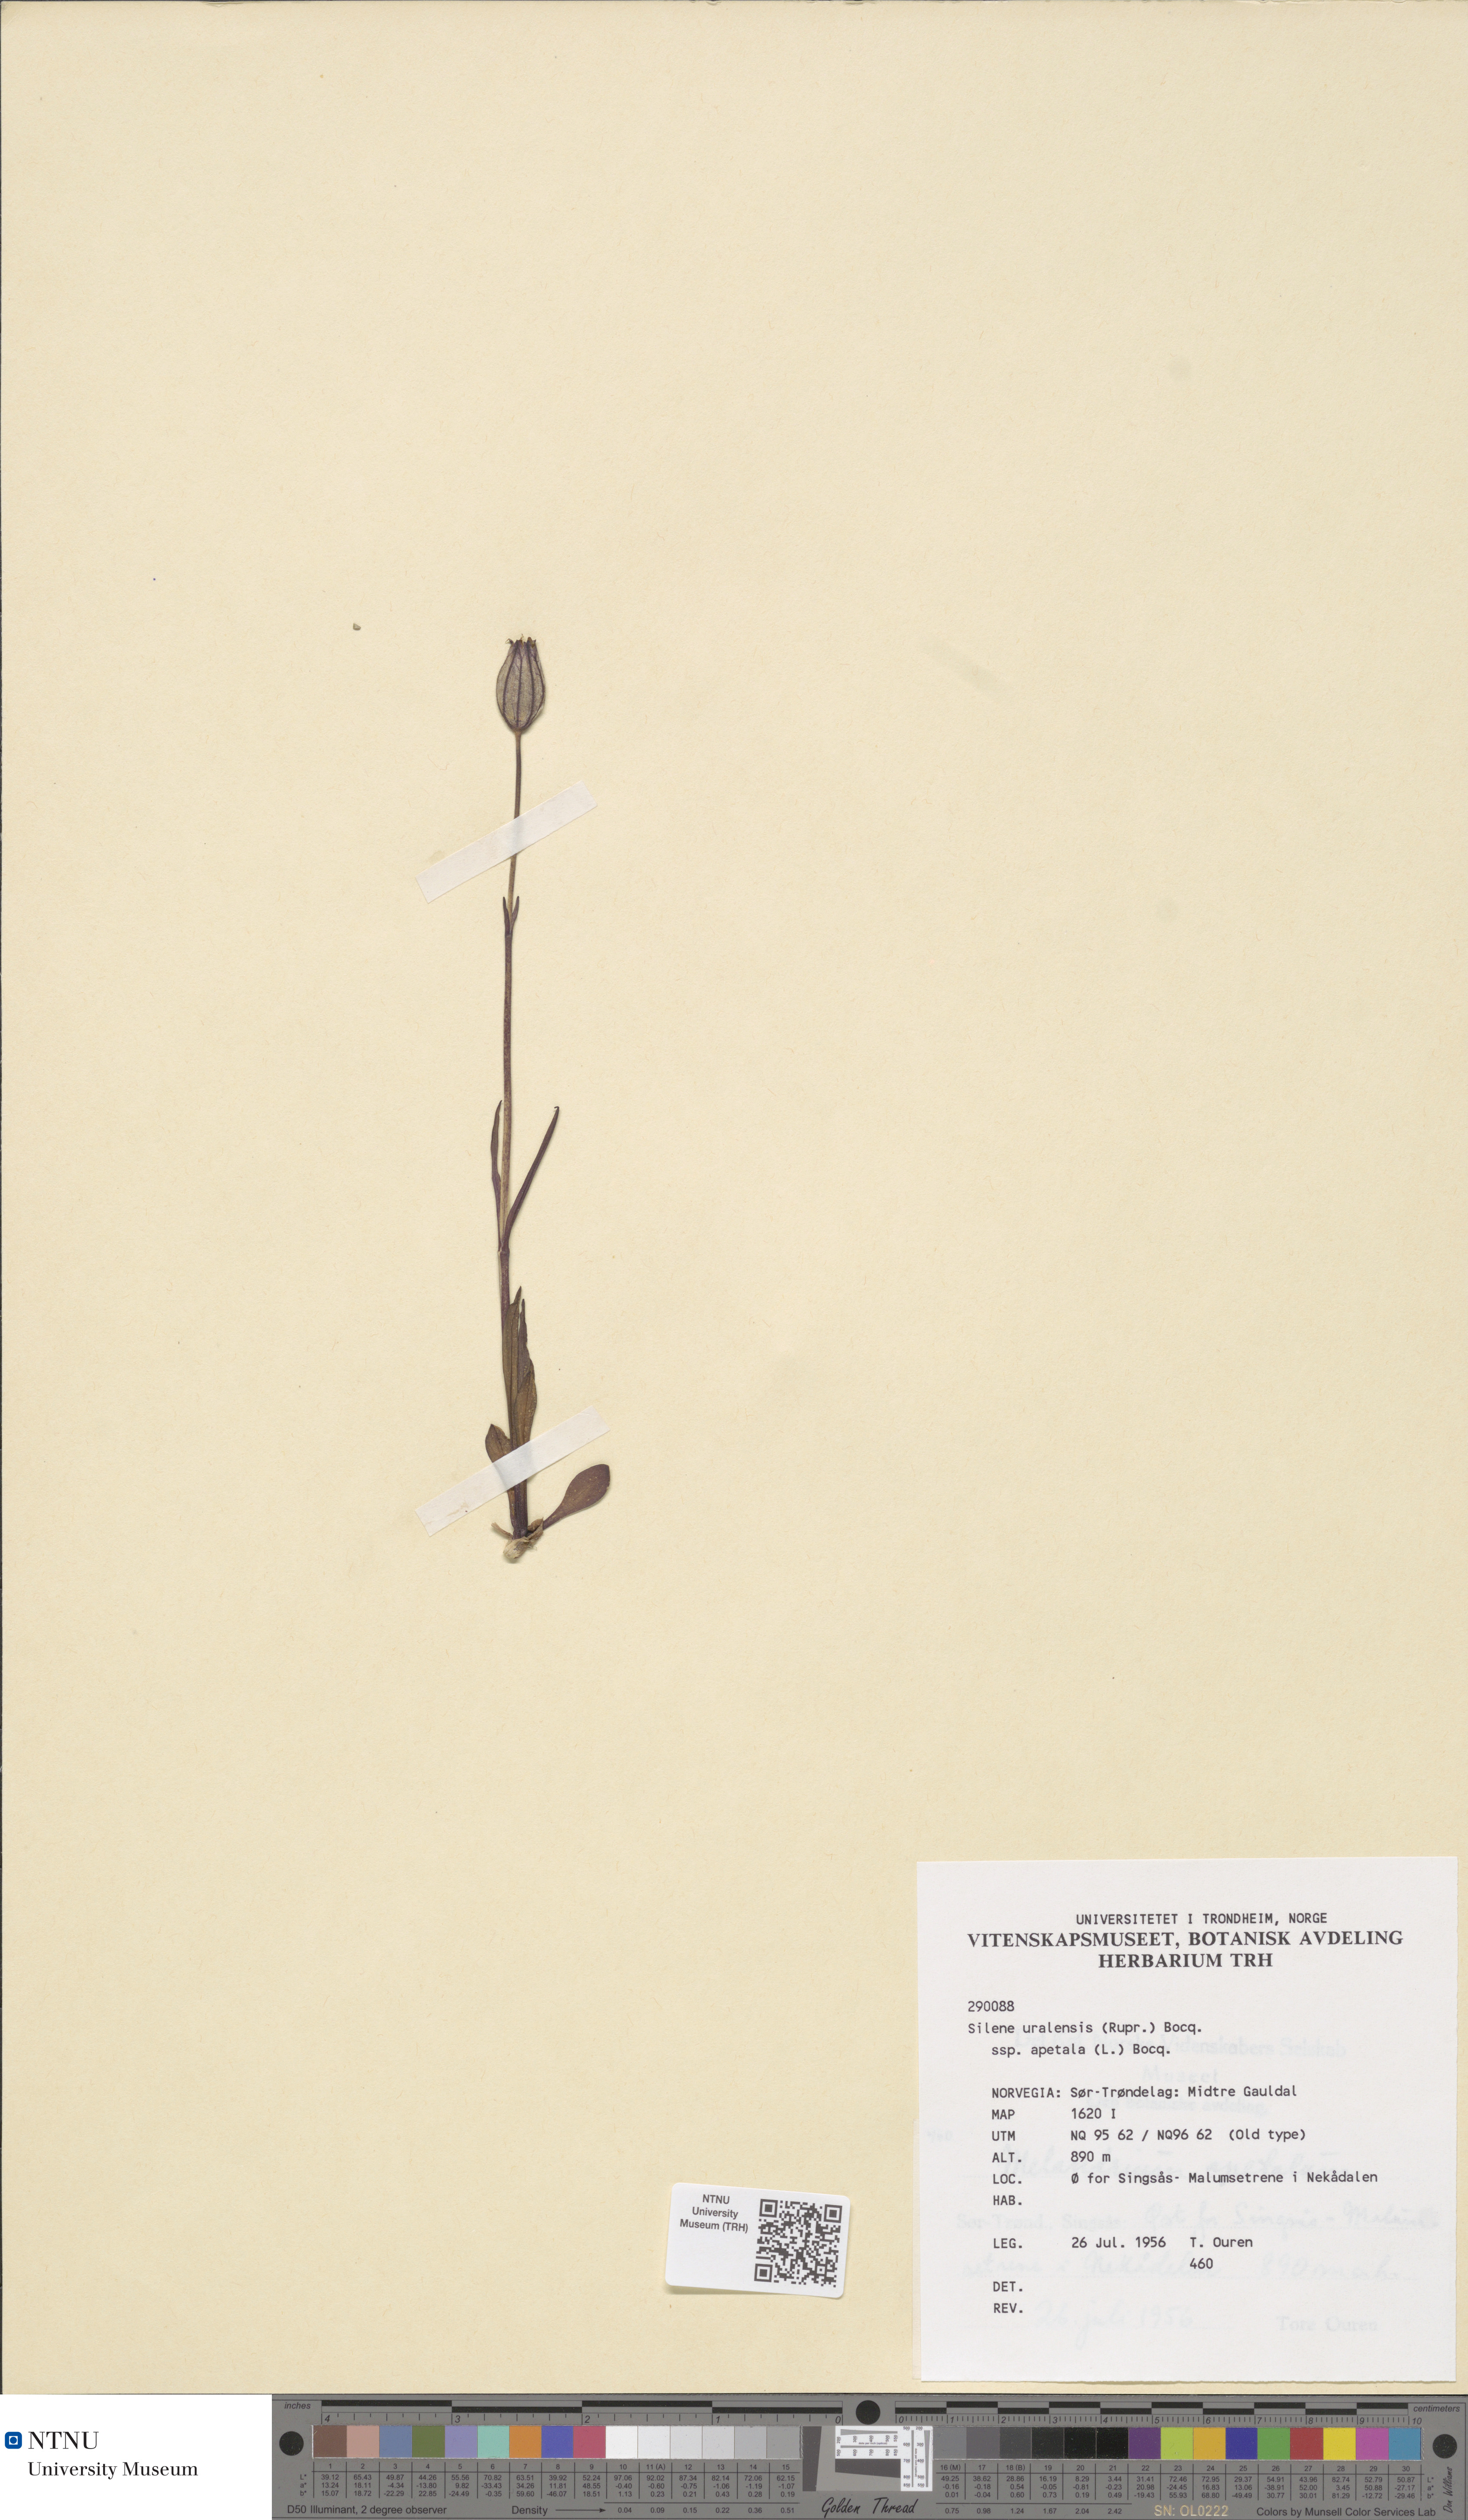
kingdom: Plantae
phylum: Tracheophyta
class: Magnoliopsida
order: Caryophyllales
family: Caryophyllaceae
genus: Silene
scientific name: Silene wahlbergella
